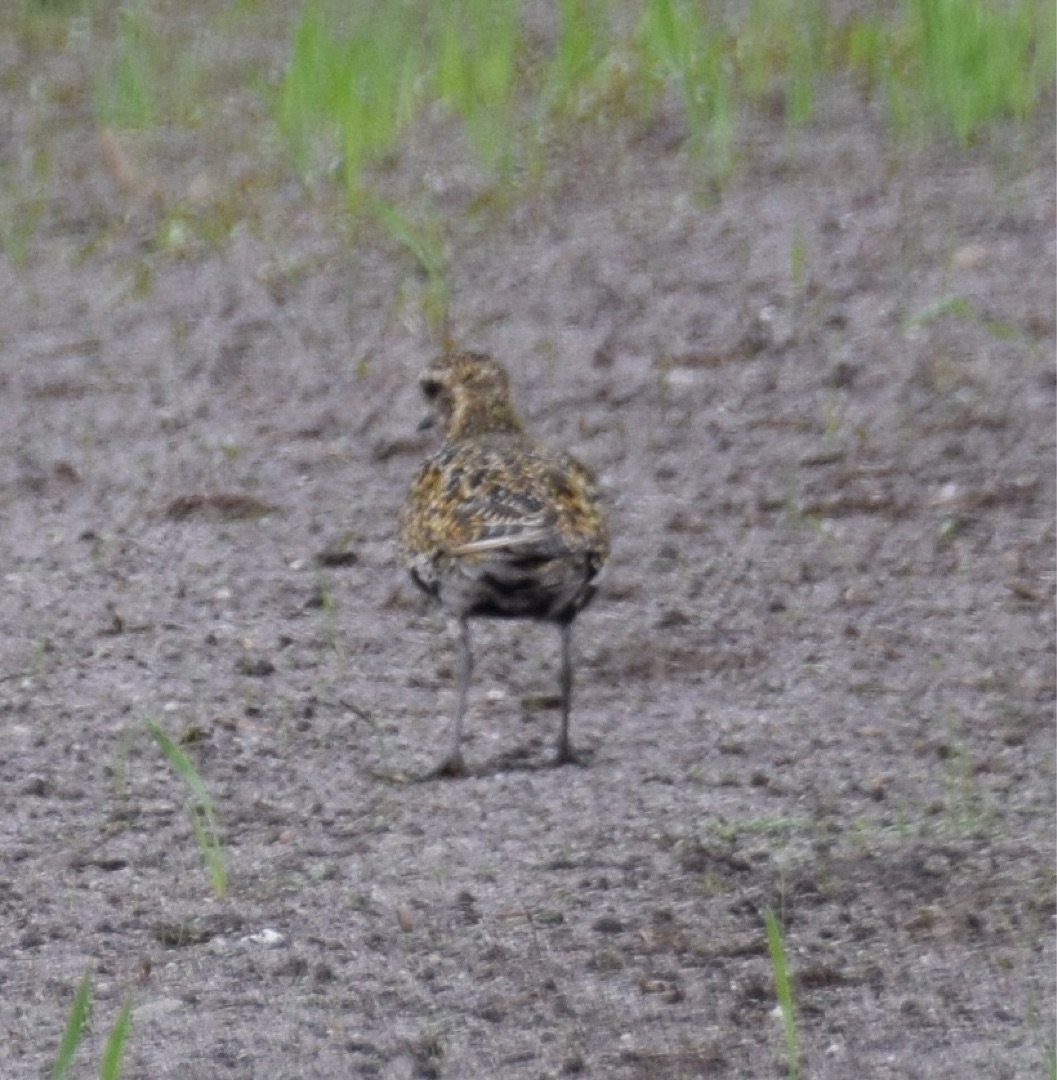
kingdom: Animalia
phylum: Chordata
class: Aves
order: Charadriiformes
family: Charadriidae
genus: Pluvialis
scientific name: Pluvialis apricaria
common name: Hjejle
